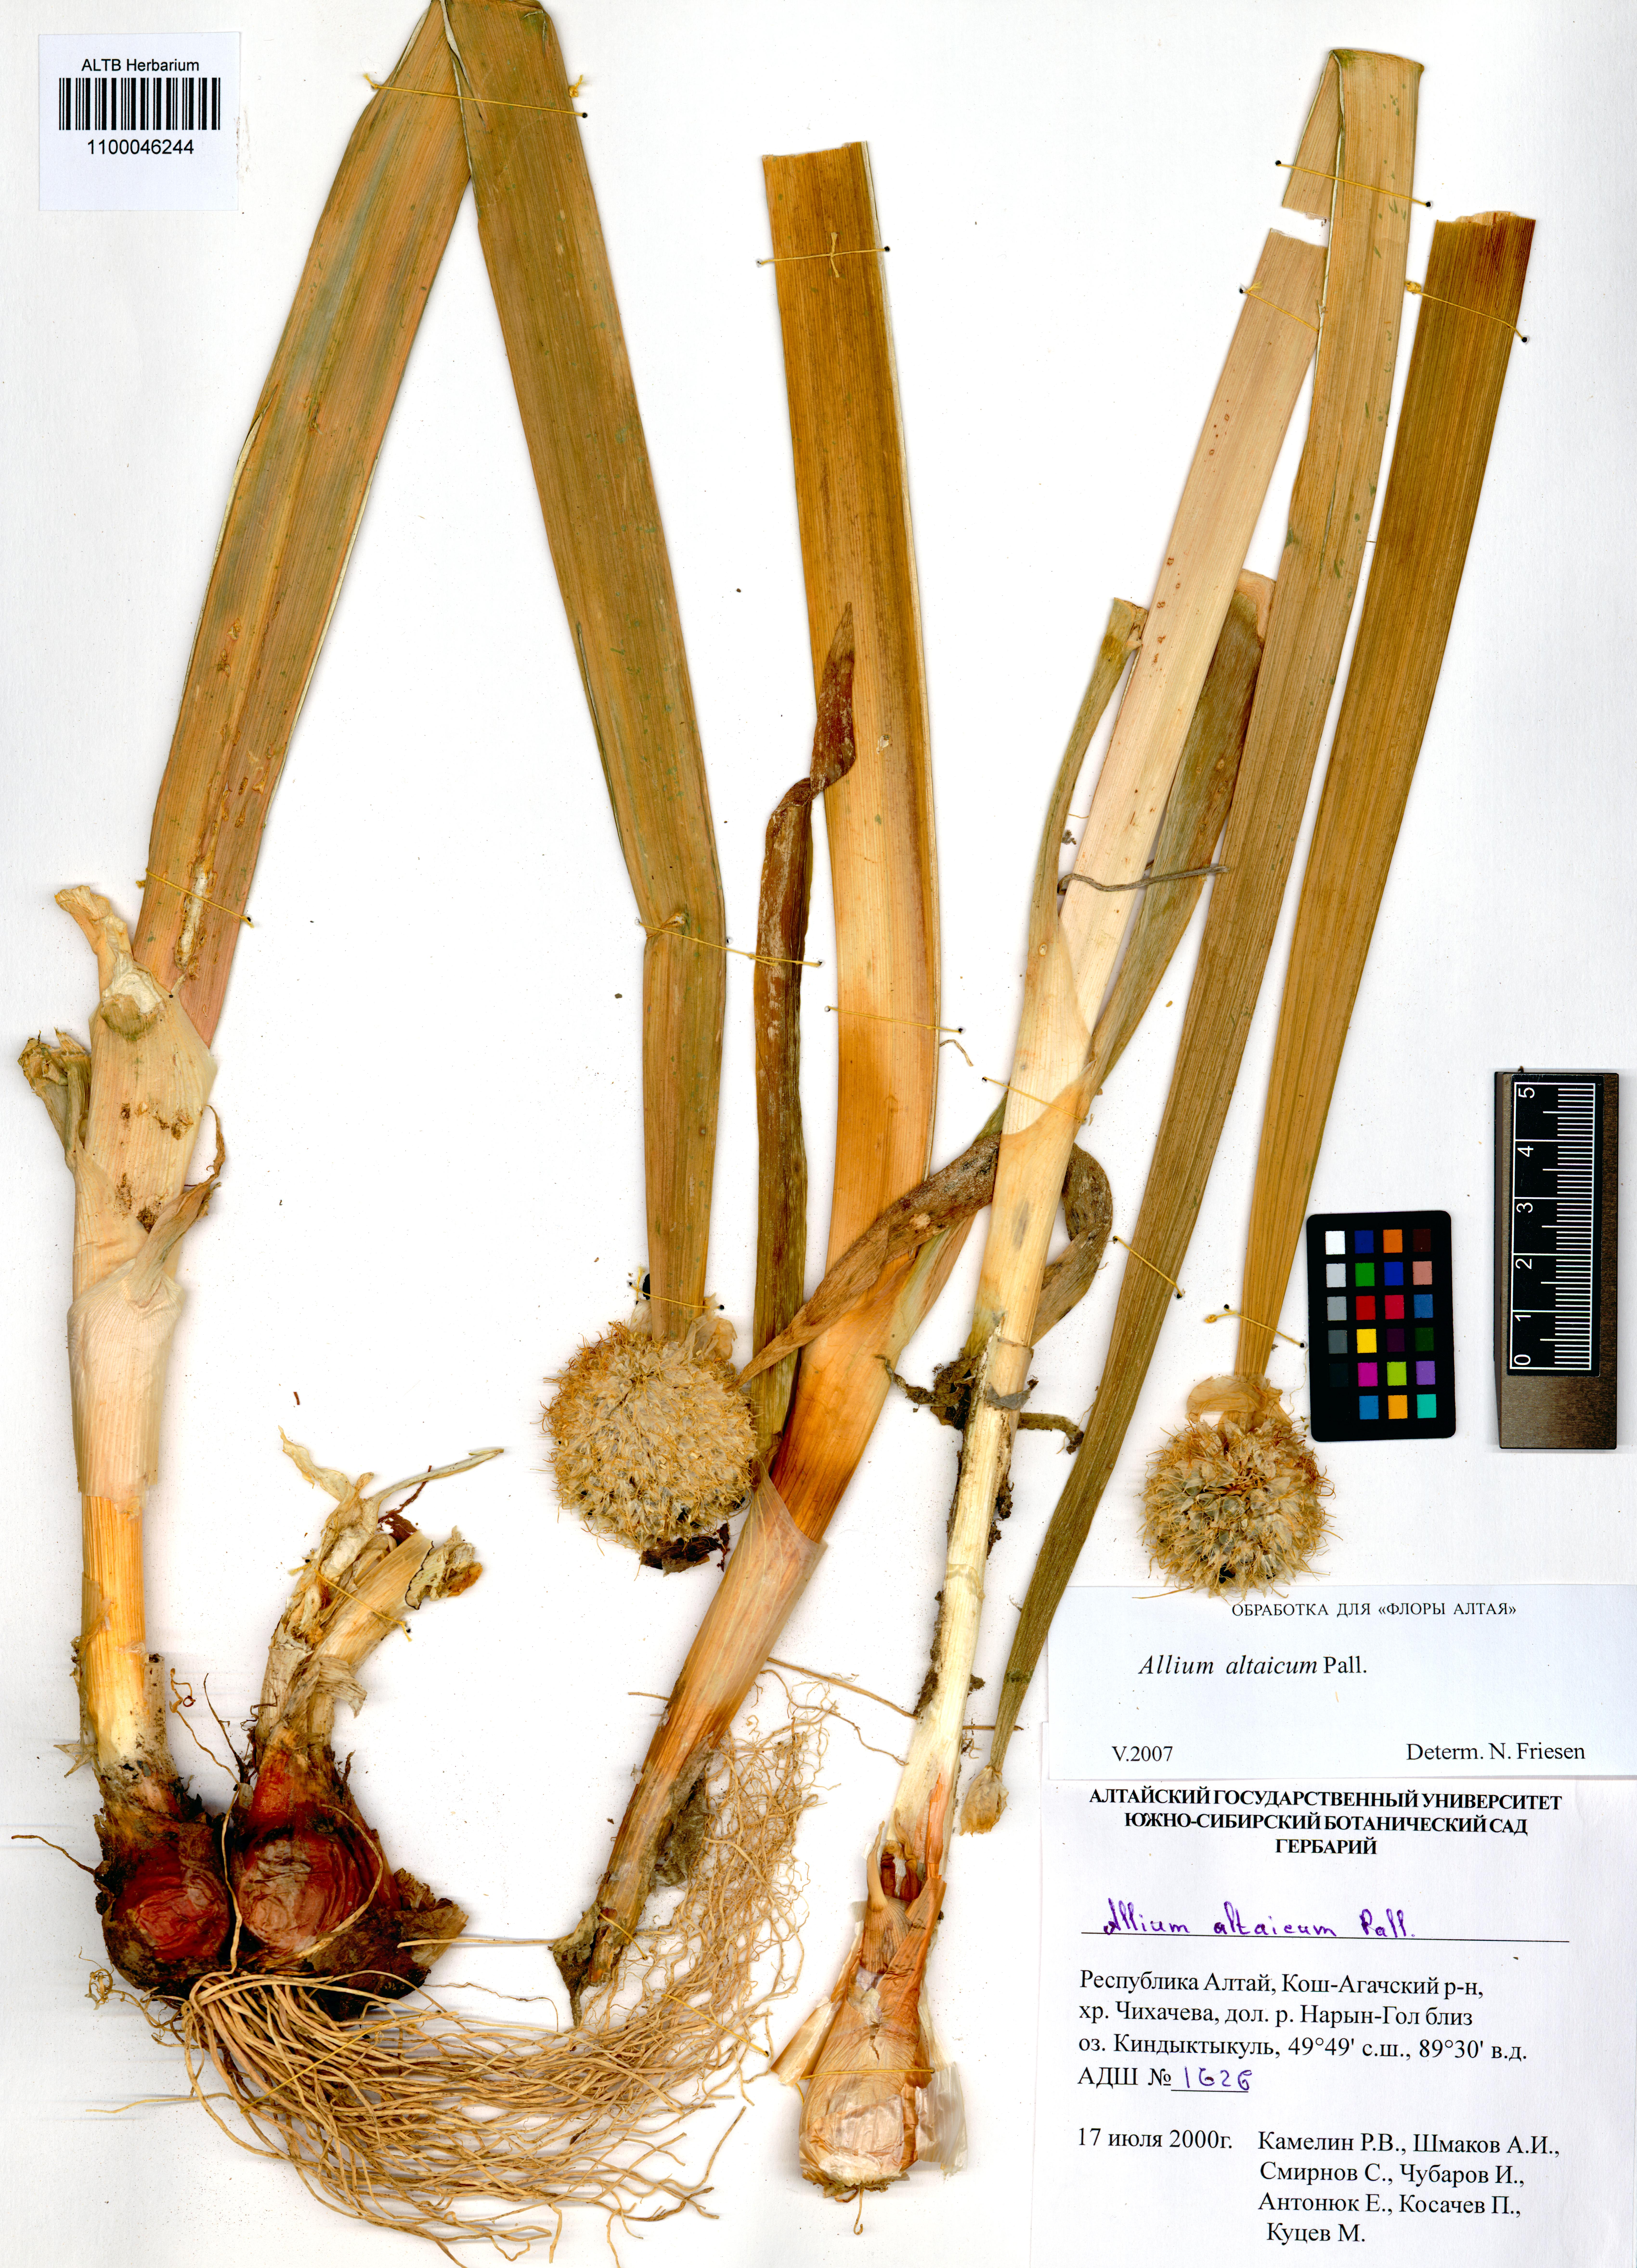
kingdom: Plantae
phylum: Tracheophyta
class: Liliopsida
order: Asparagales
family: Amaryllidaceae
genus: Allium
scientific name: Allium altaicum
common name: Altai onion
